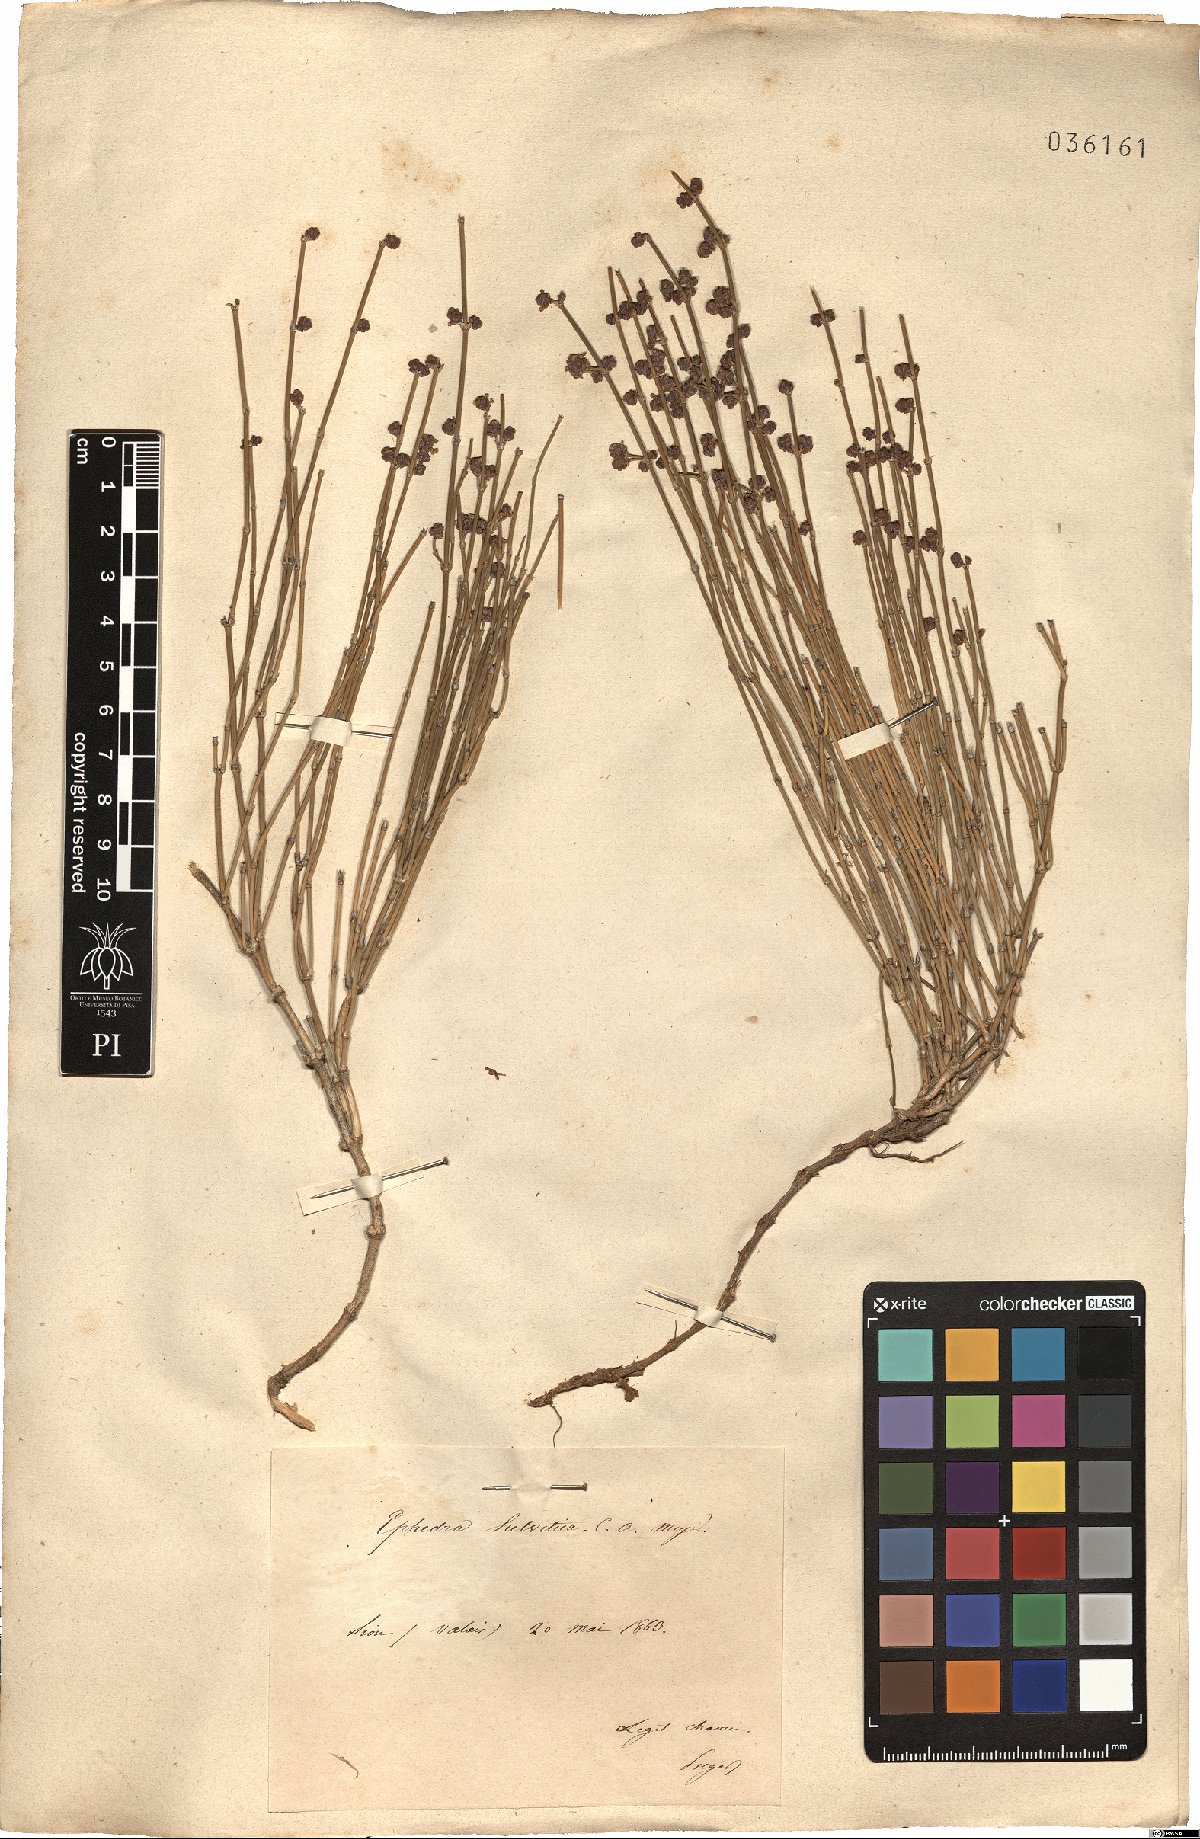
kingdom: Plantae
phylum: Tracheophyta
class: Gnetopsida
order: Ephedrales
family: Ephedraceae
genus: Ephedra
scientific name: Ephedra distachya
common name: Sea grape
